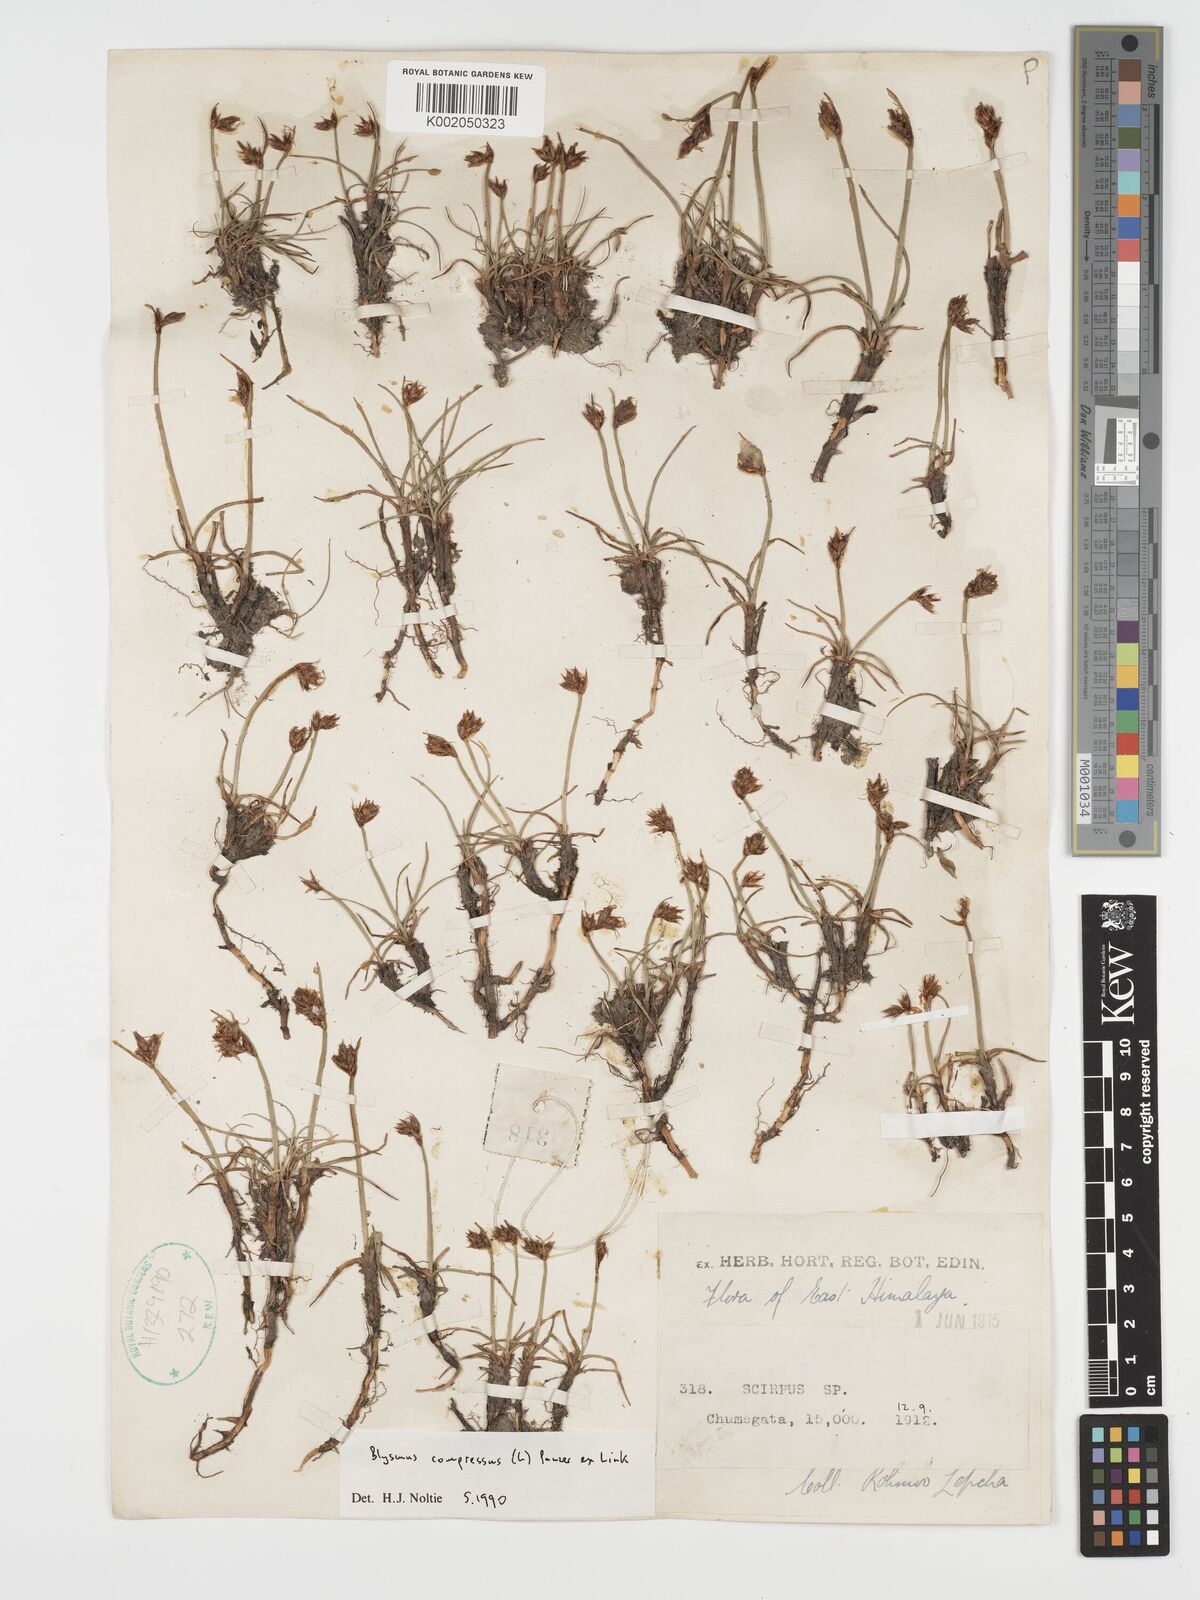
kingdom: Plantae
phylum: Tracheophyta
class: Liliopsida
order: Poales
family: Cyperaceae
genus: Blysmus
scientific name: Blysmus compressus
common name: Flat-sedge
